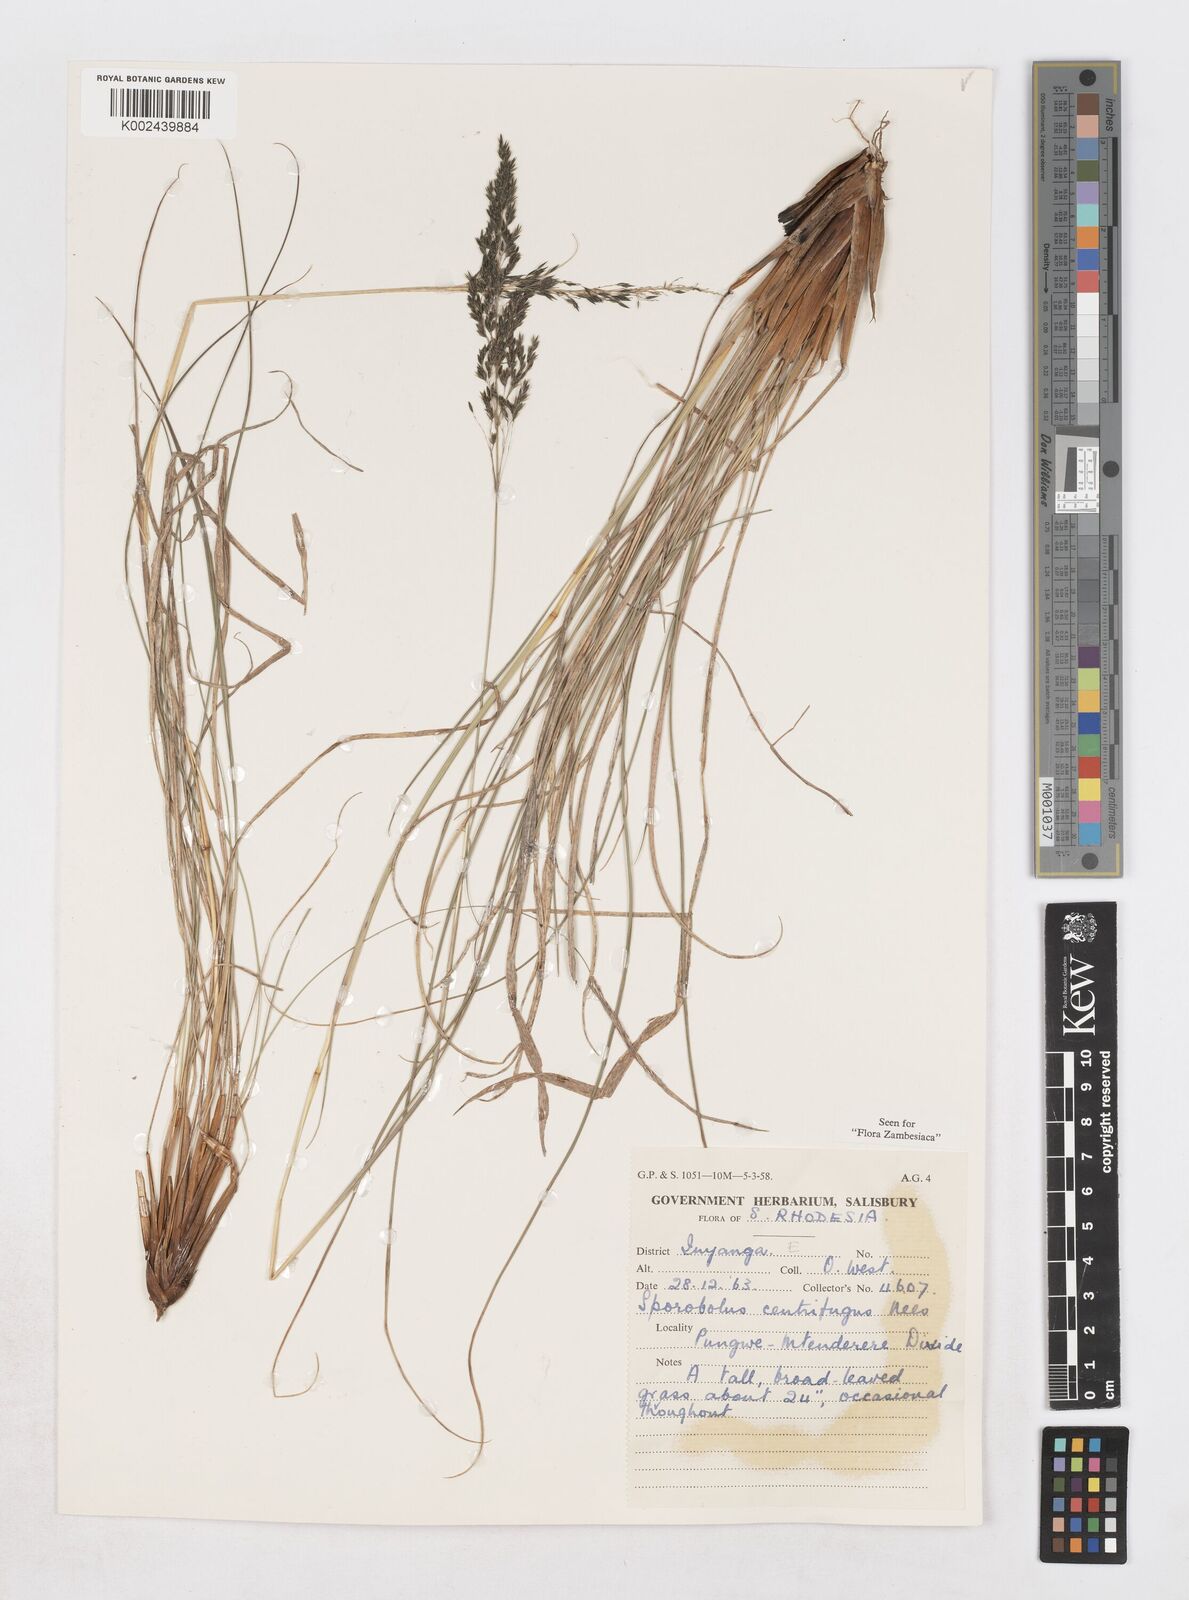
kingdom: Plantae
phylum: Tracheophyta
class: Liliopsida
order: Poales
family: Poaceae
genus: Sporobolus
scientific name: Sporobolus centrifugus
